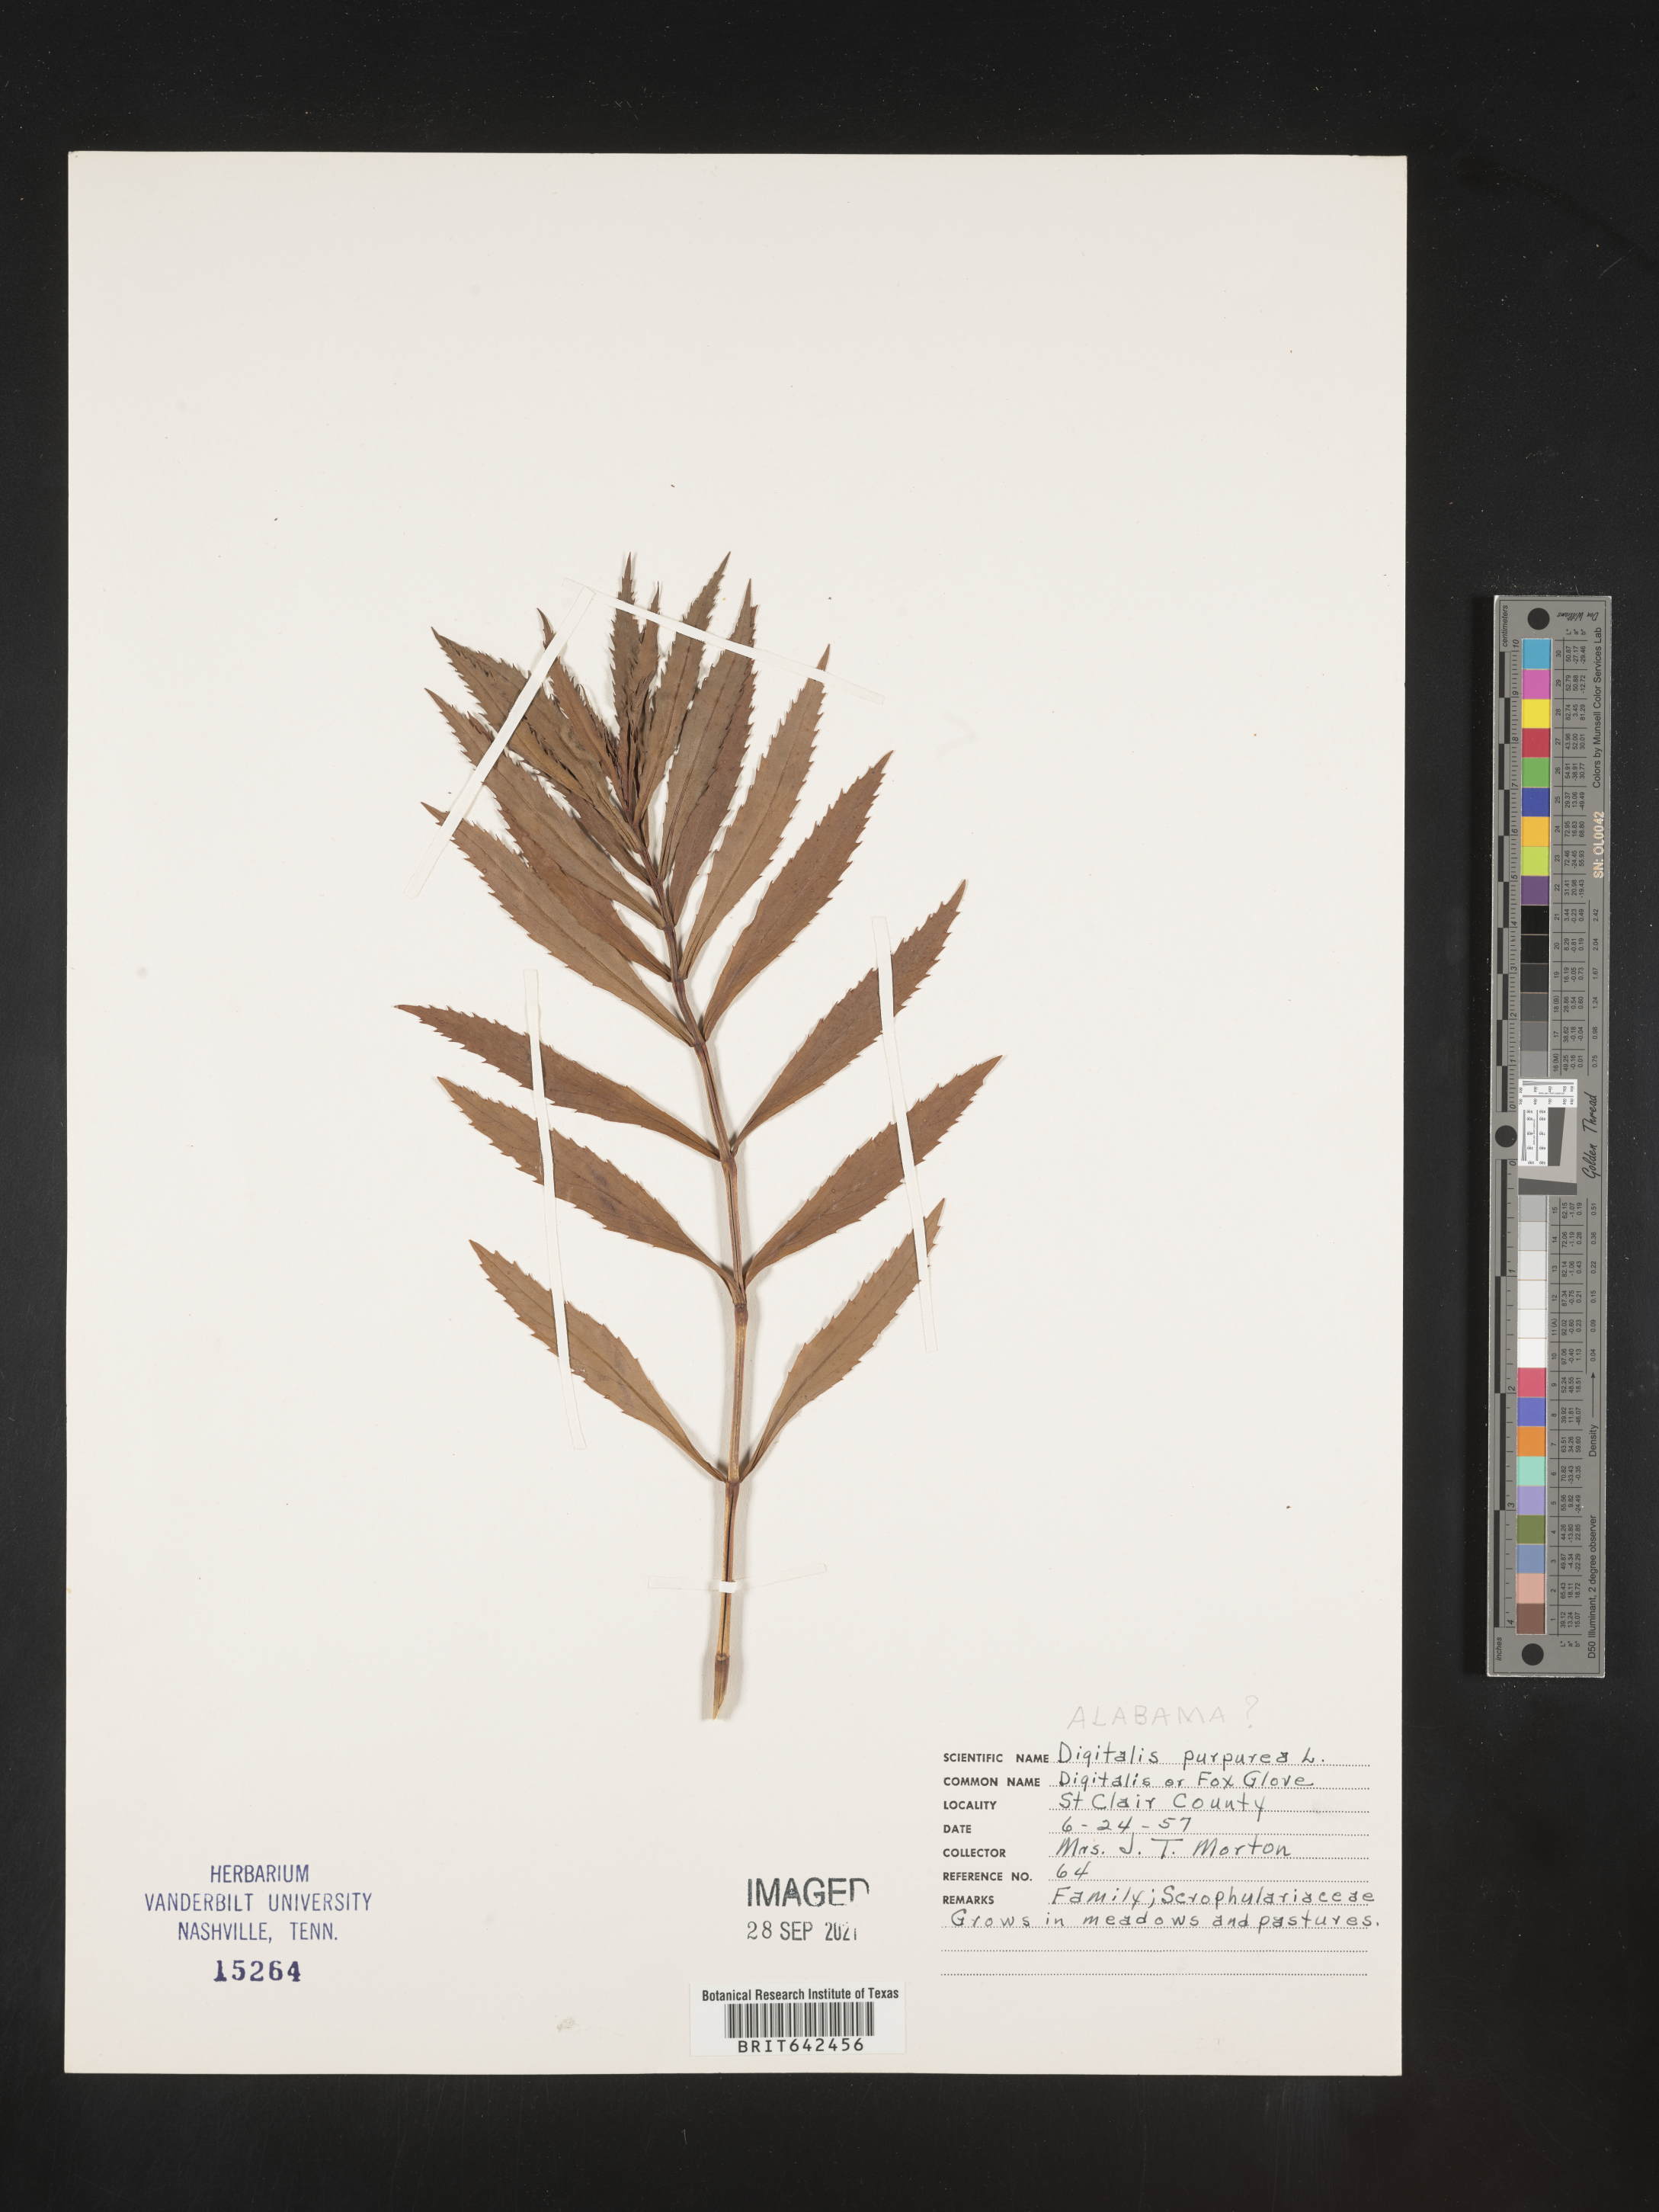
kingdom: Plantae
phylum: Tracheophyta
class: Magnoliopsida
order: Lamiales
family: Plantaginaceae
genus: Digitalis
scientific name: Digitalis
